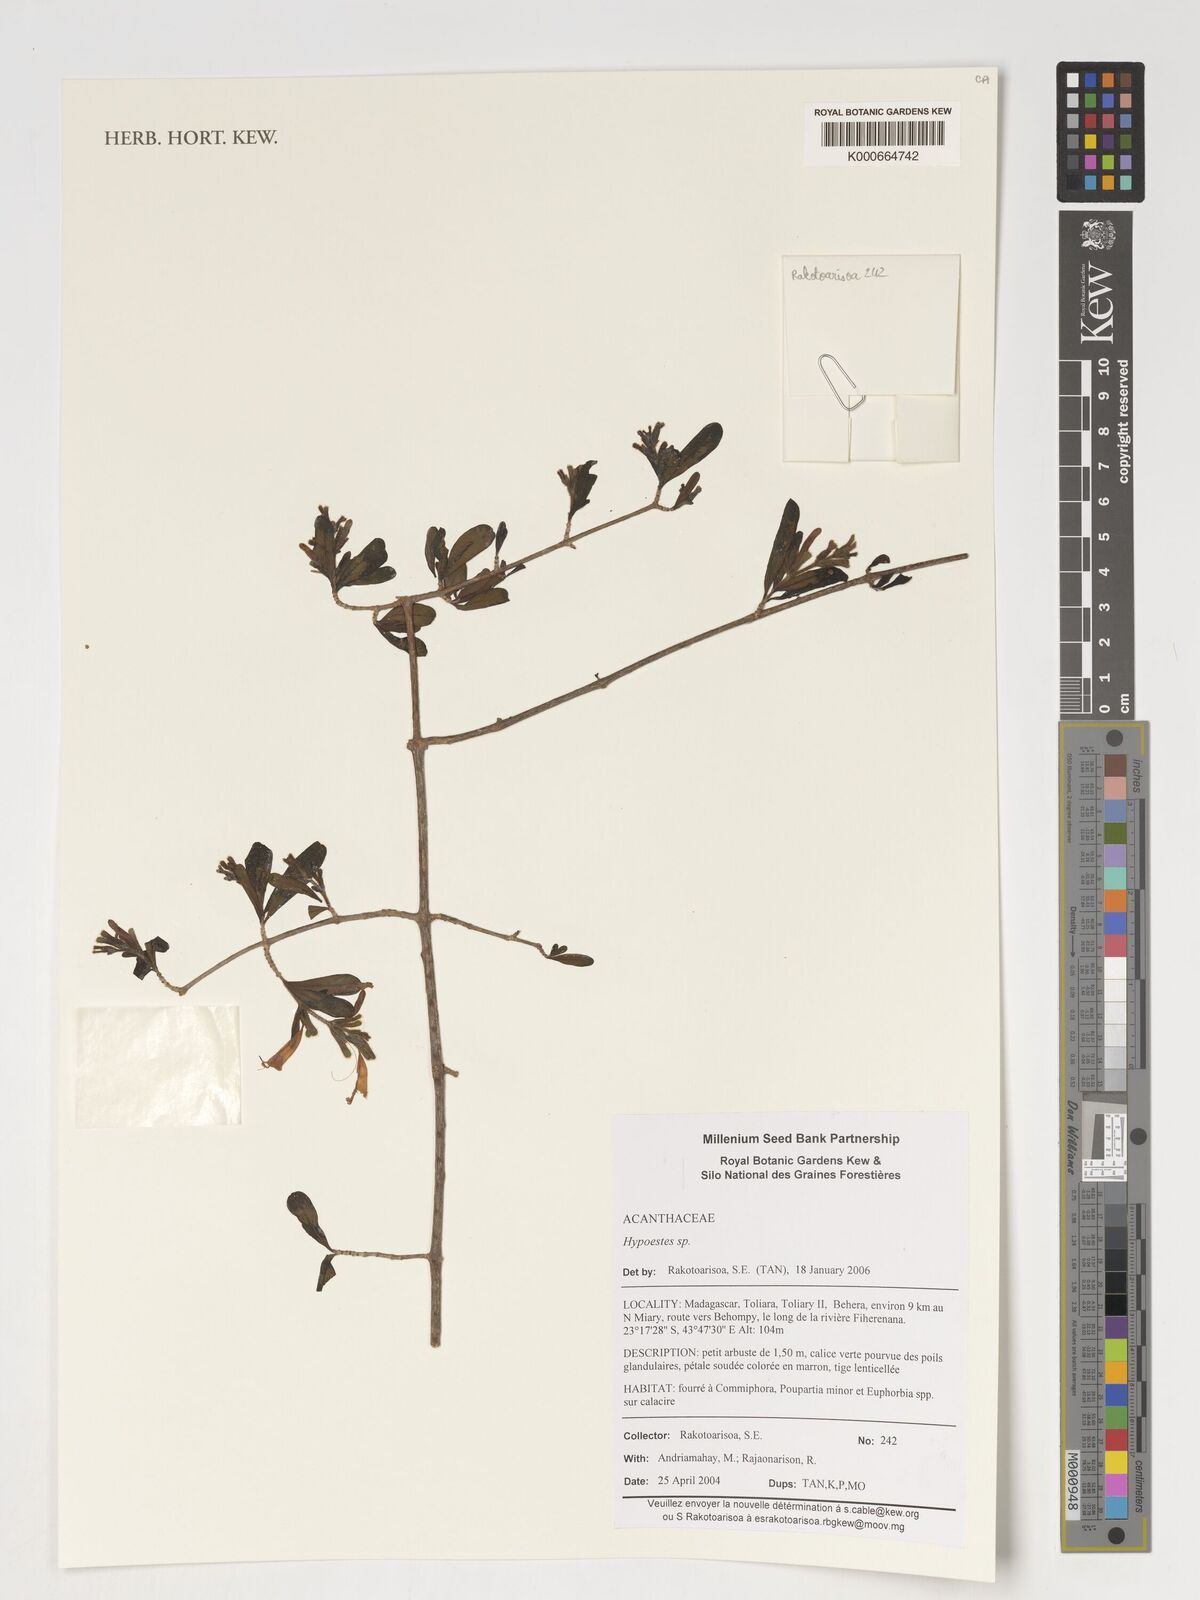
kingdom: Plantae
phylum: Tracheophyta
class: Magnoliopsida
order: Lamiales
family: Acanthaceae
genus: Hypoestes
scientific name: Hypoestes
